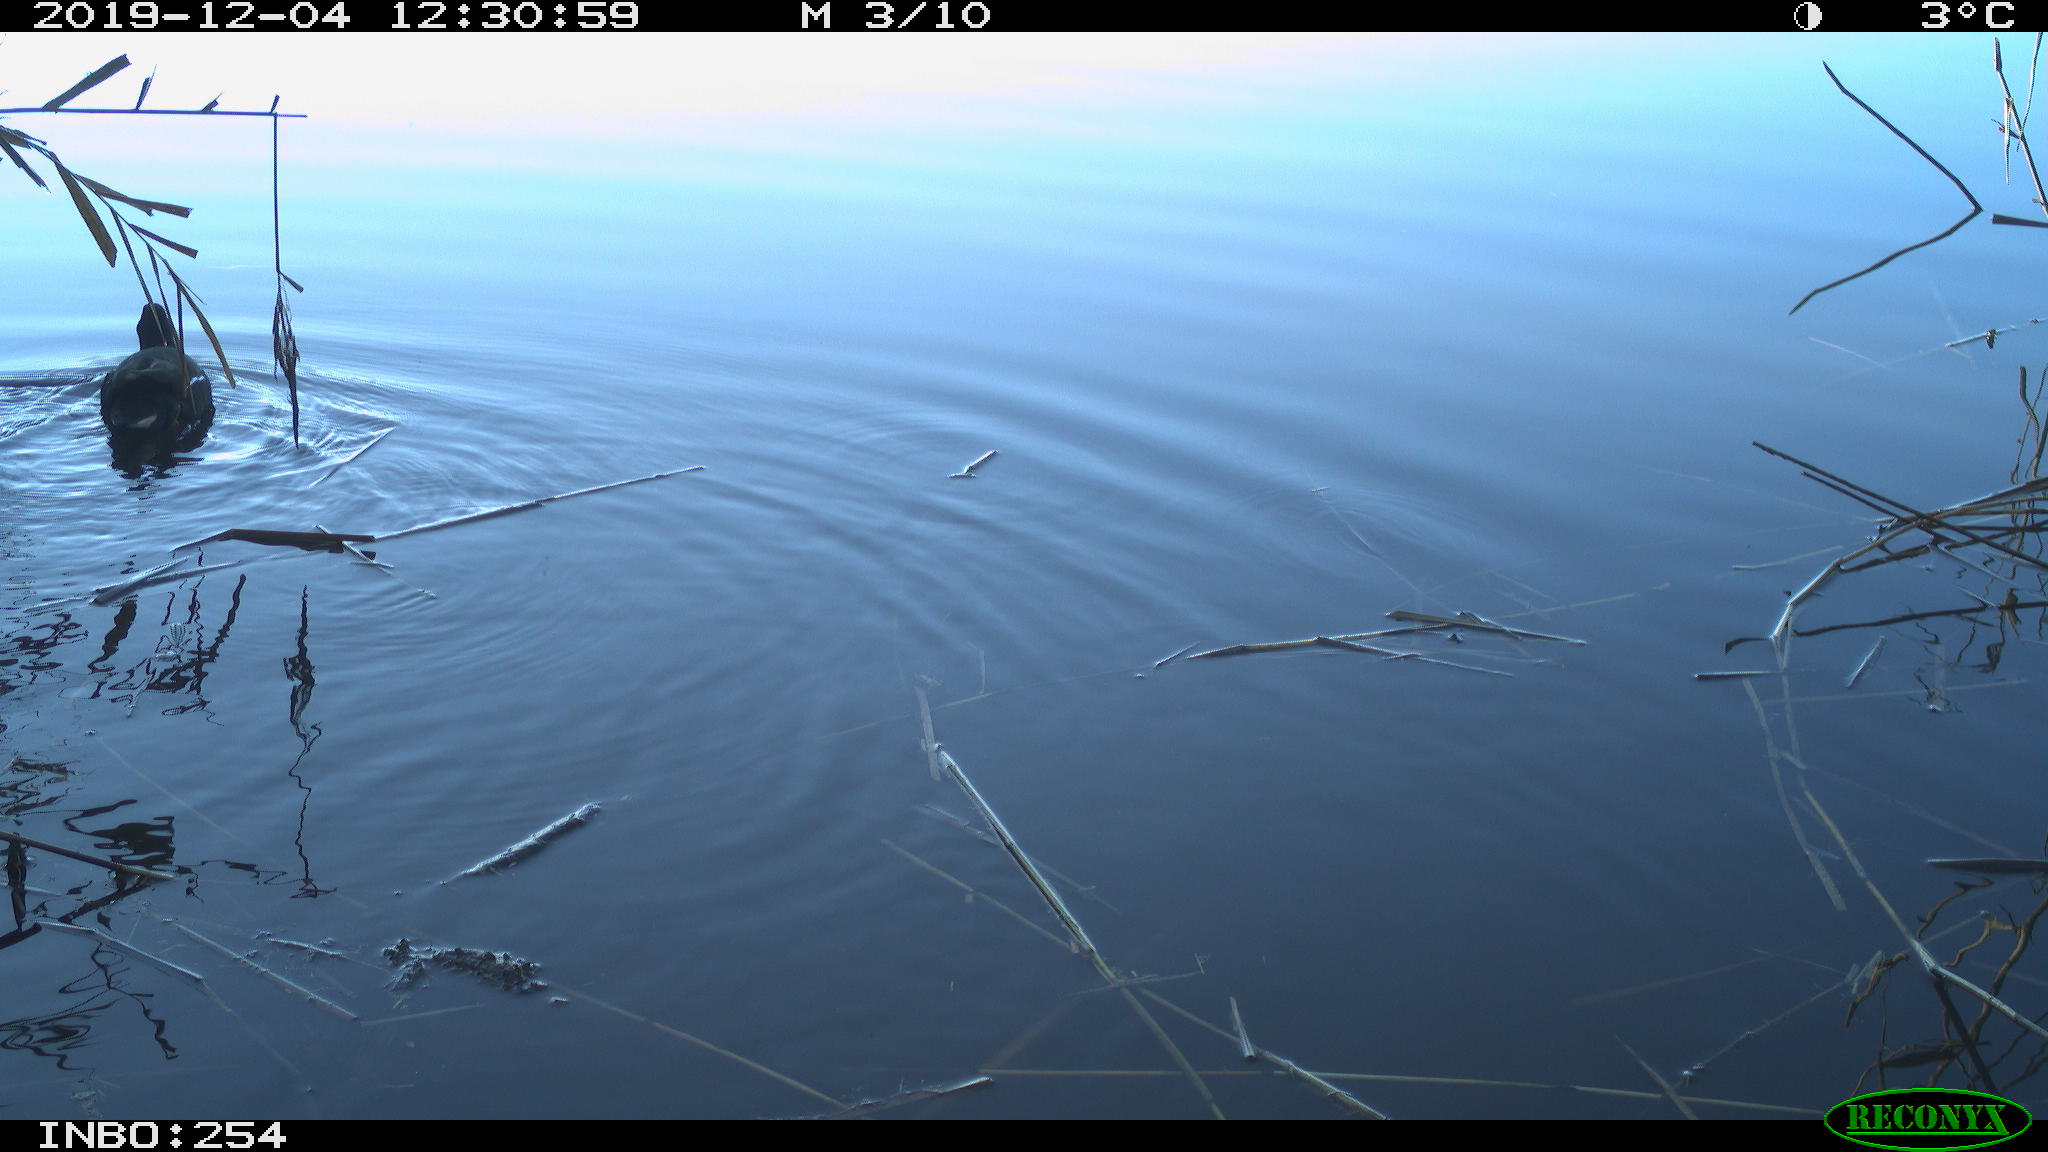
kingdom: Animalia
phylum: Chordata
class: Aves
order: Gruiformes
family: Rallidae
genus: Gallinula
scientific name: Gallinula chloropus
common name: Common moorhen
